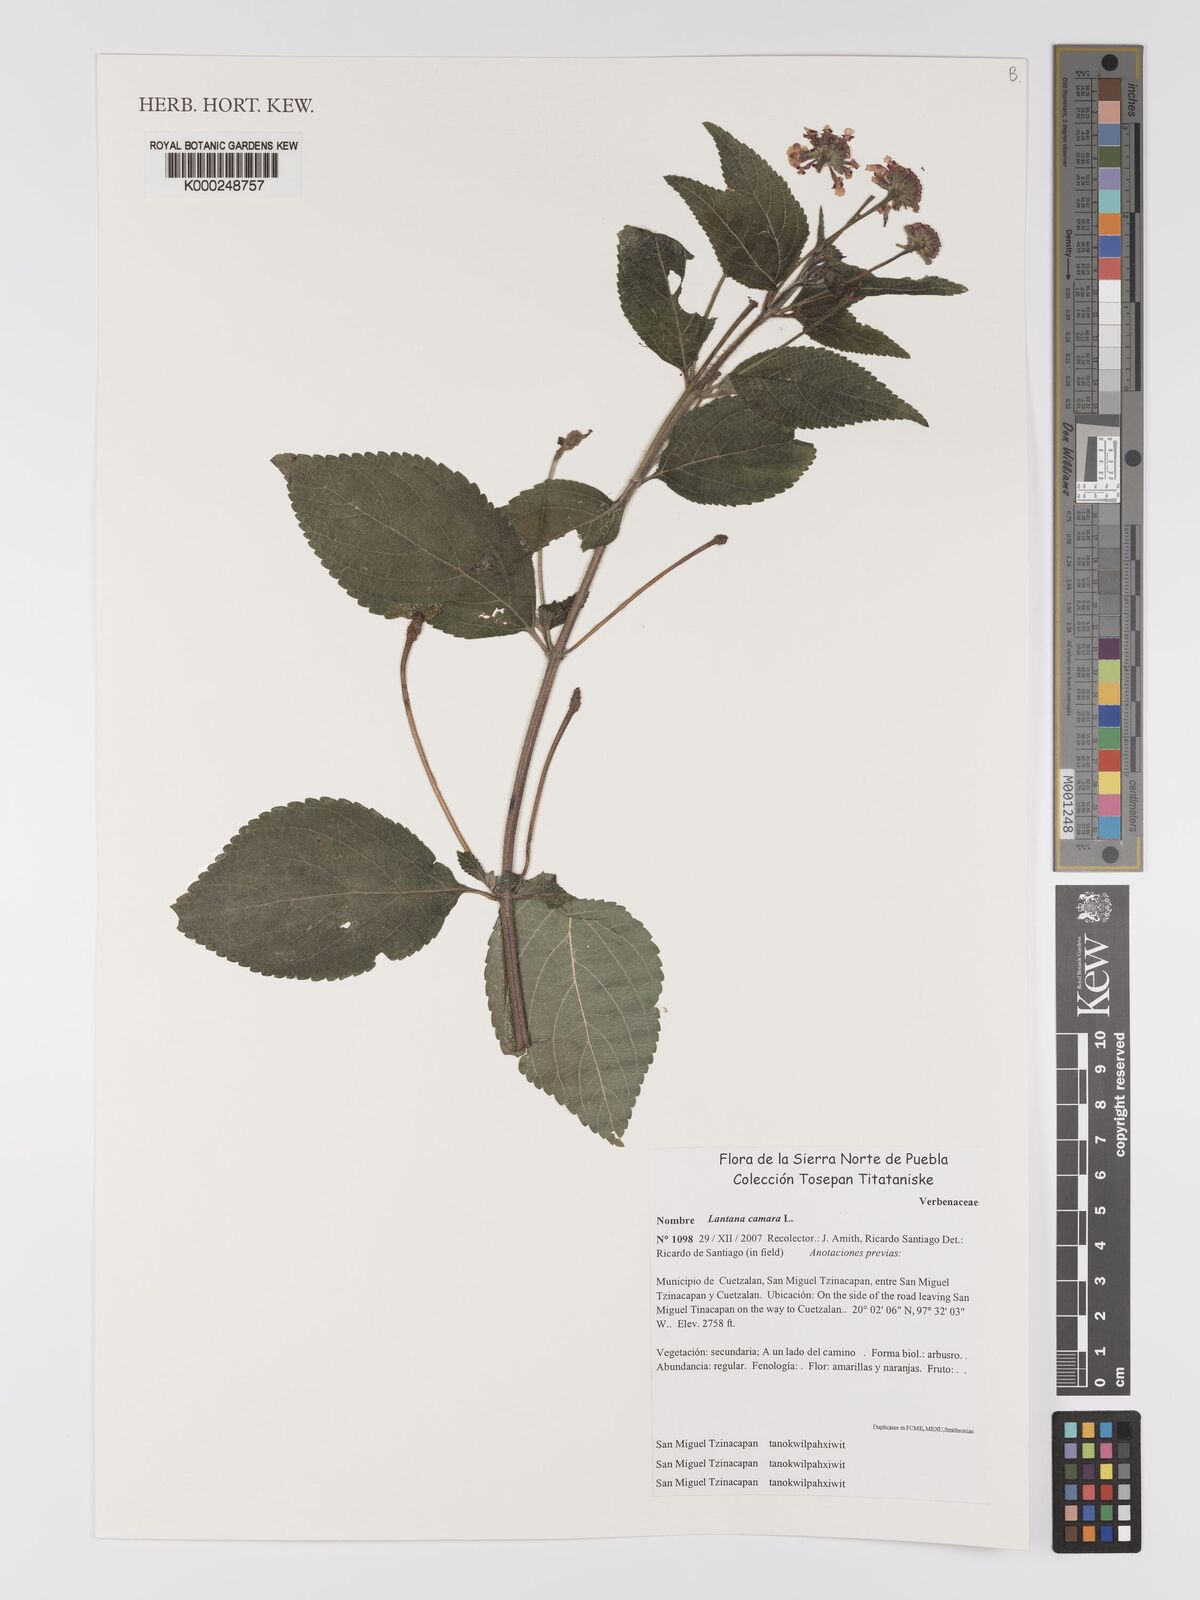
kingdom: Plantae
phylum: Tracheophyta
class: Magnoliopsida
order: Lamiales
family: Verbenaceae
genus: Lantana
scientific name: Lantana camara
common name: Lantana
